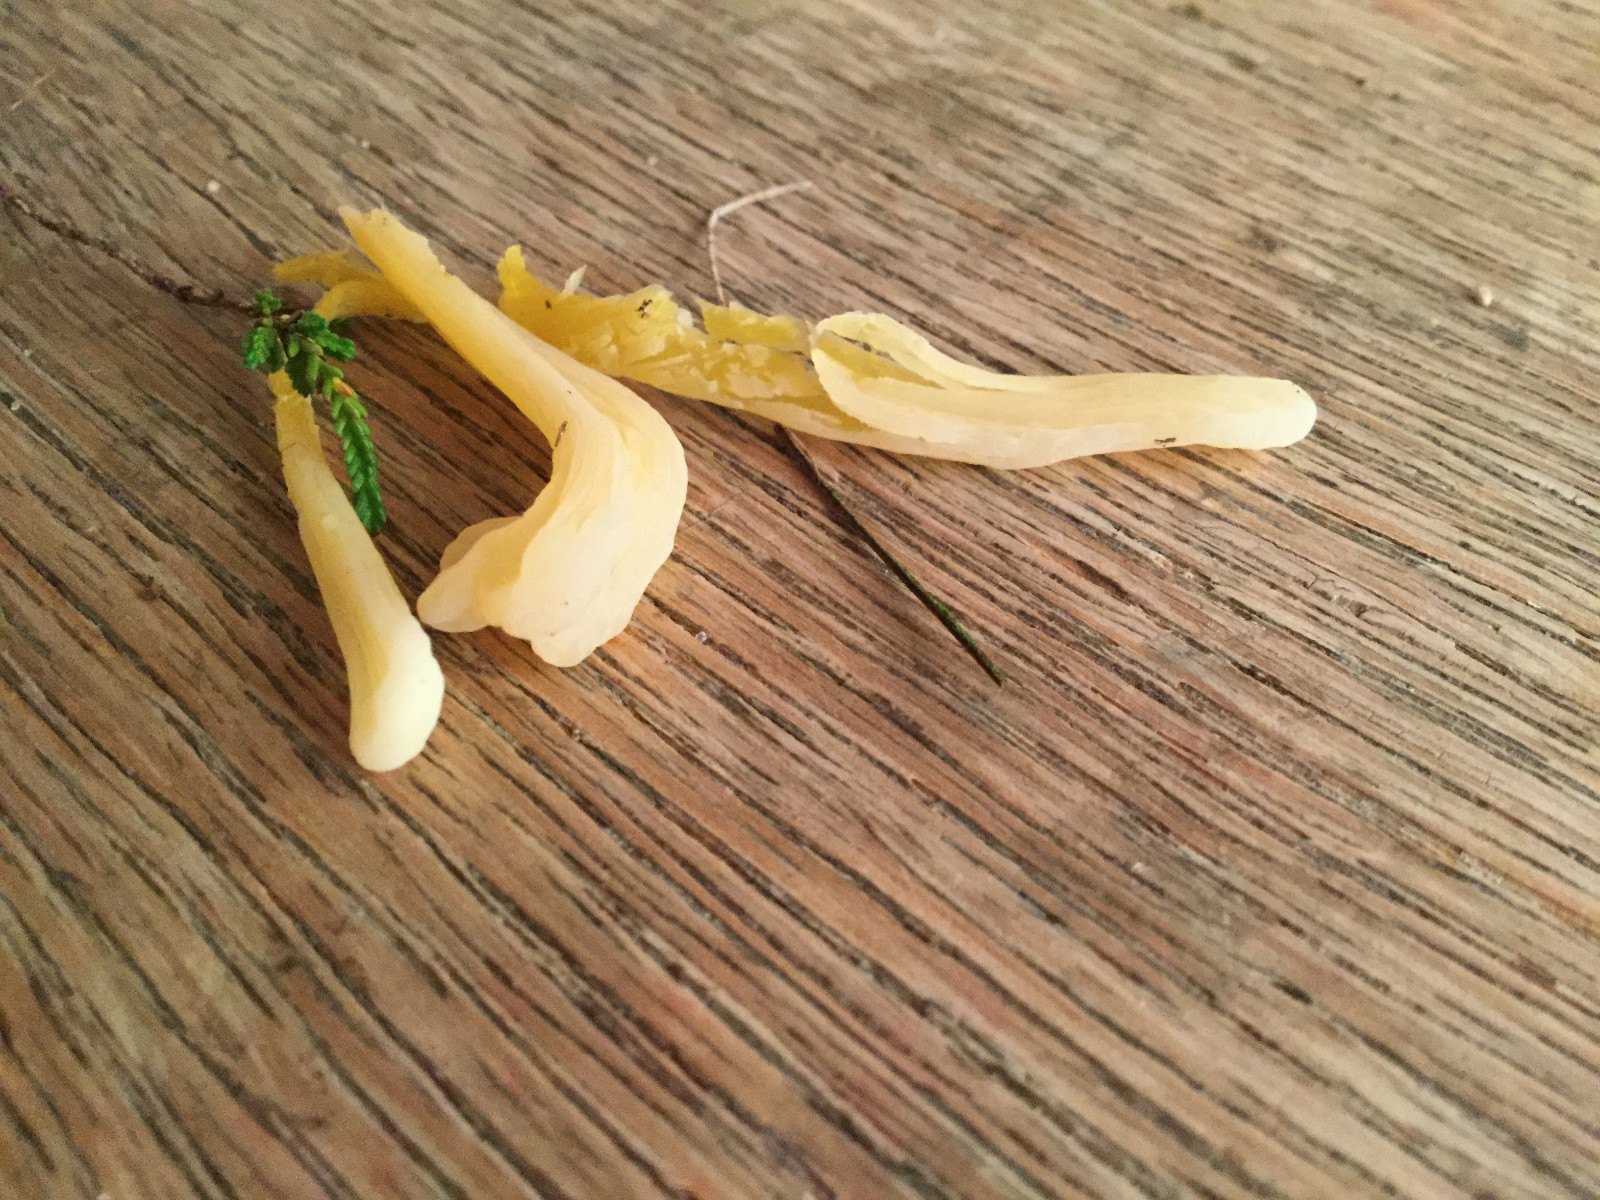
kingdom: Fungi
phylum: Basidiomycota
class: Agaricomycetes
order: Agaricales
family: Clavariaceae
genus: Clavaria
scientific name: Clavaria argillacea
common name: lerfarvet køllesvamp
